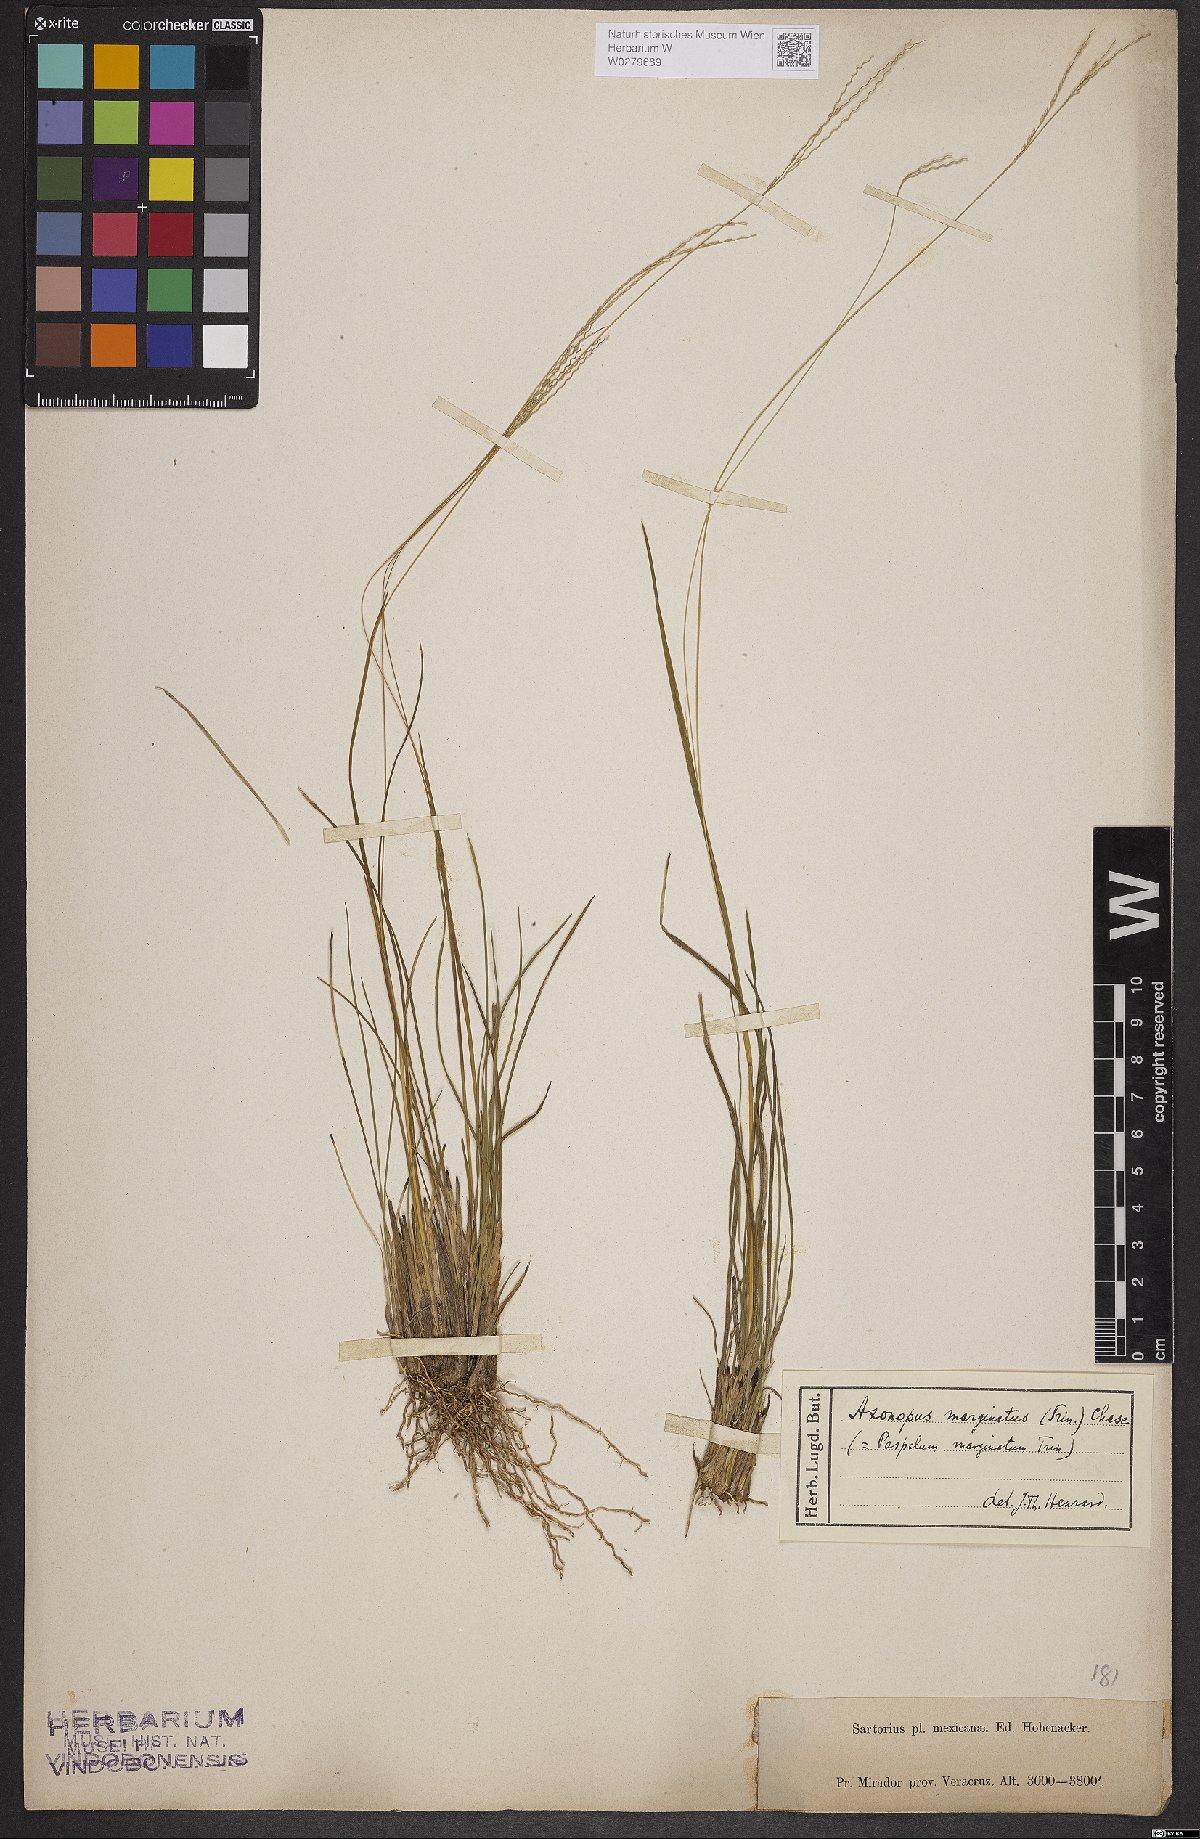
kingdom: Plantae
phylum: Tracheophyta
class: Liliopsida
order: Poales
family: Poaceae
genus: Axonopus
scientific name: Axonopus marginatus
